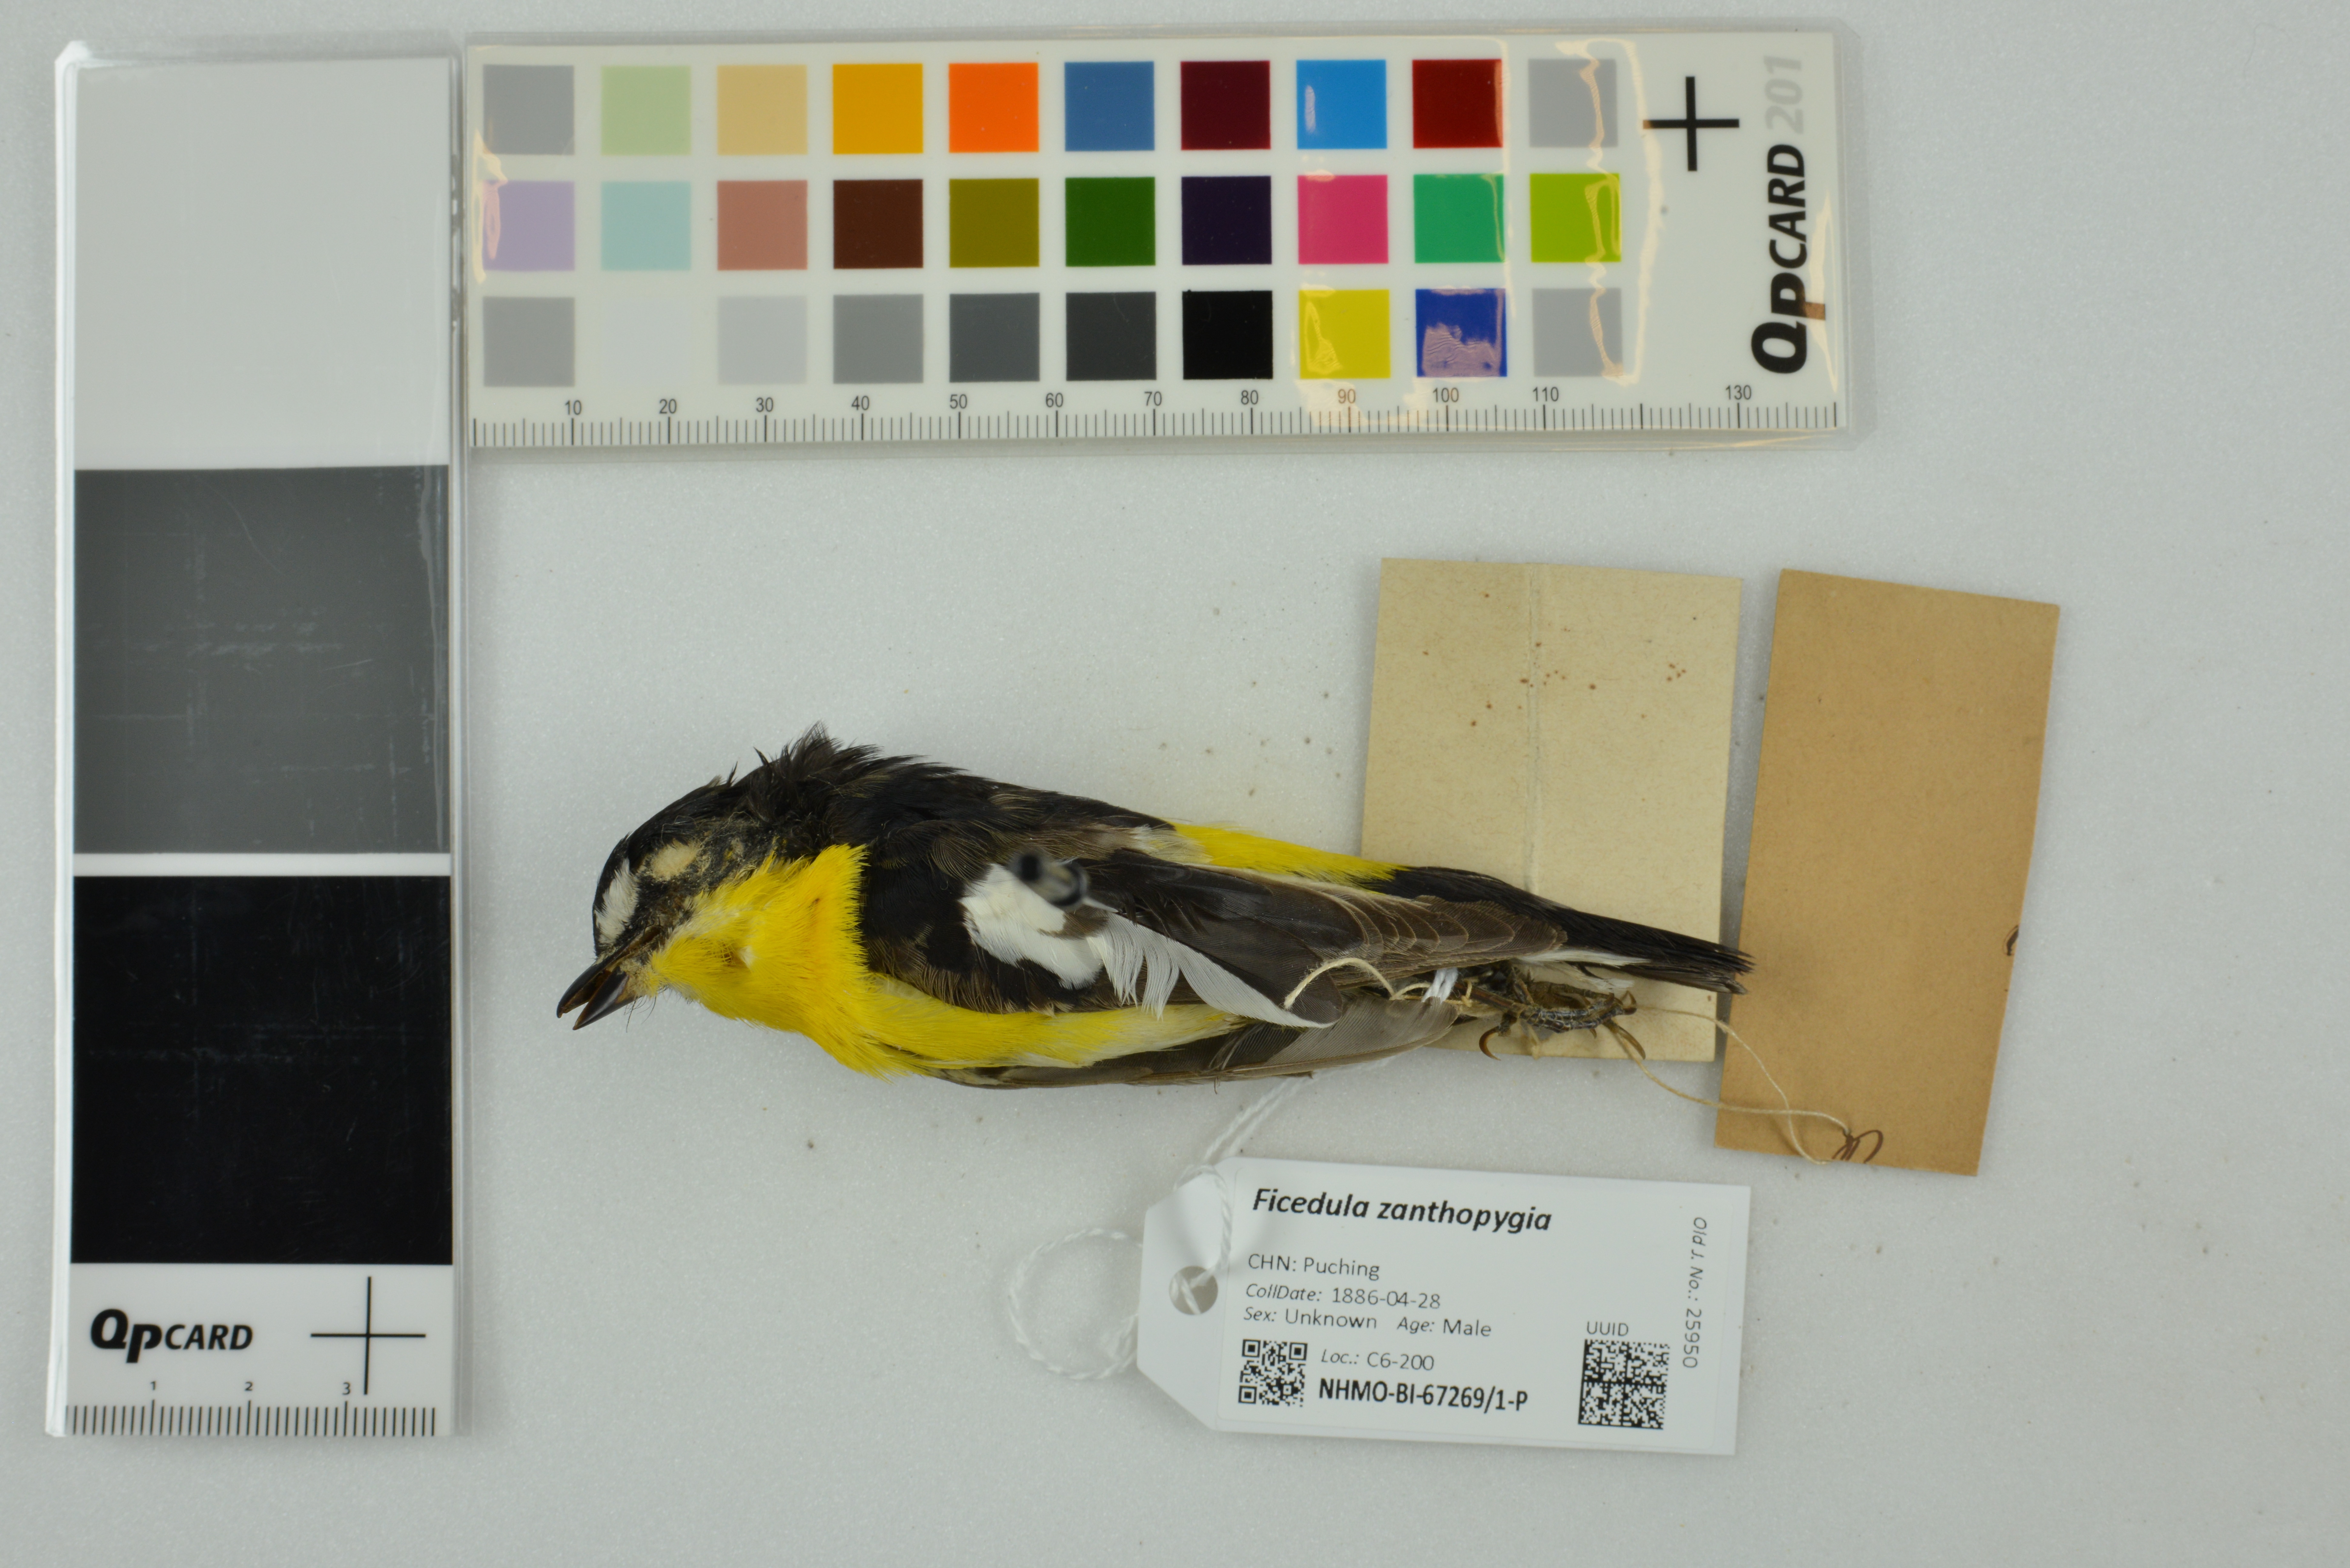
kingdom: Animalia
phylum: Chordata
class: Aves
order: Passeriformes
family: Muscicapidae
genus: Ficedula
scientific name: Ficedula zanthopygia
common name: Yellow-rumped flycatcher
